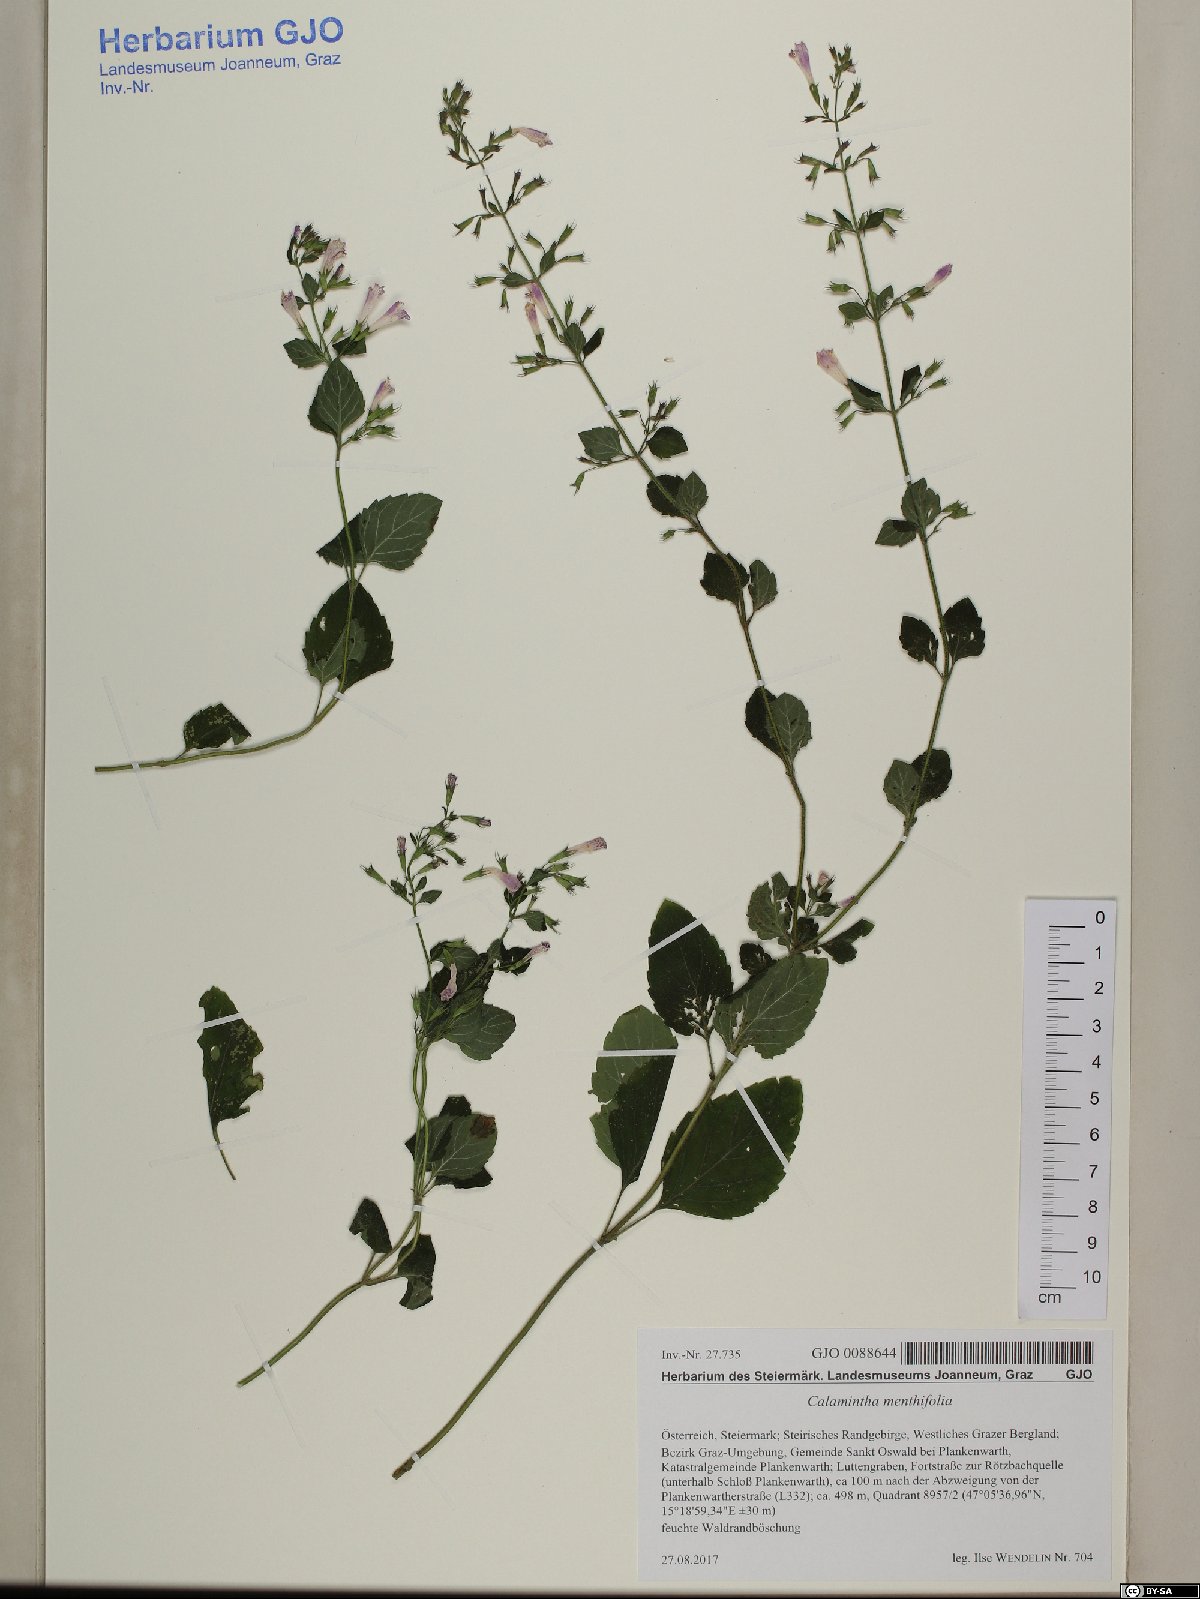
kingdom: Plantae
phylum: Tracheophyta
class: Magnoliopsida
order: Lamiales
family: Lamiaceae
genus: Clinopodium
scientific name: Clinopodium menthifolium
